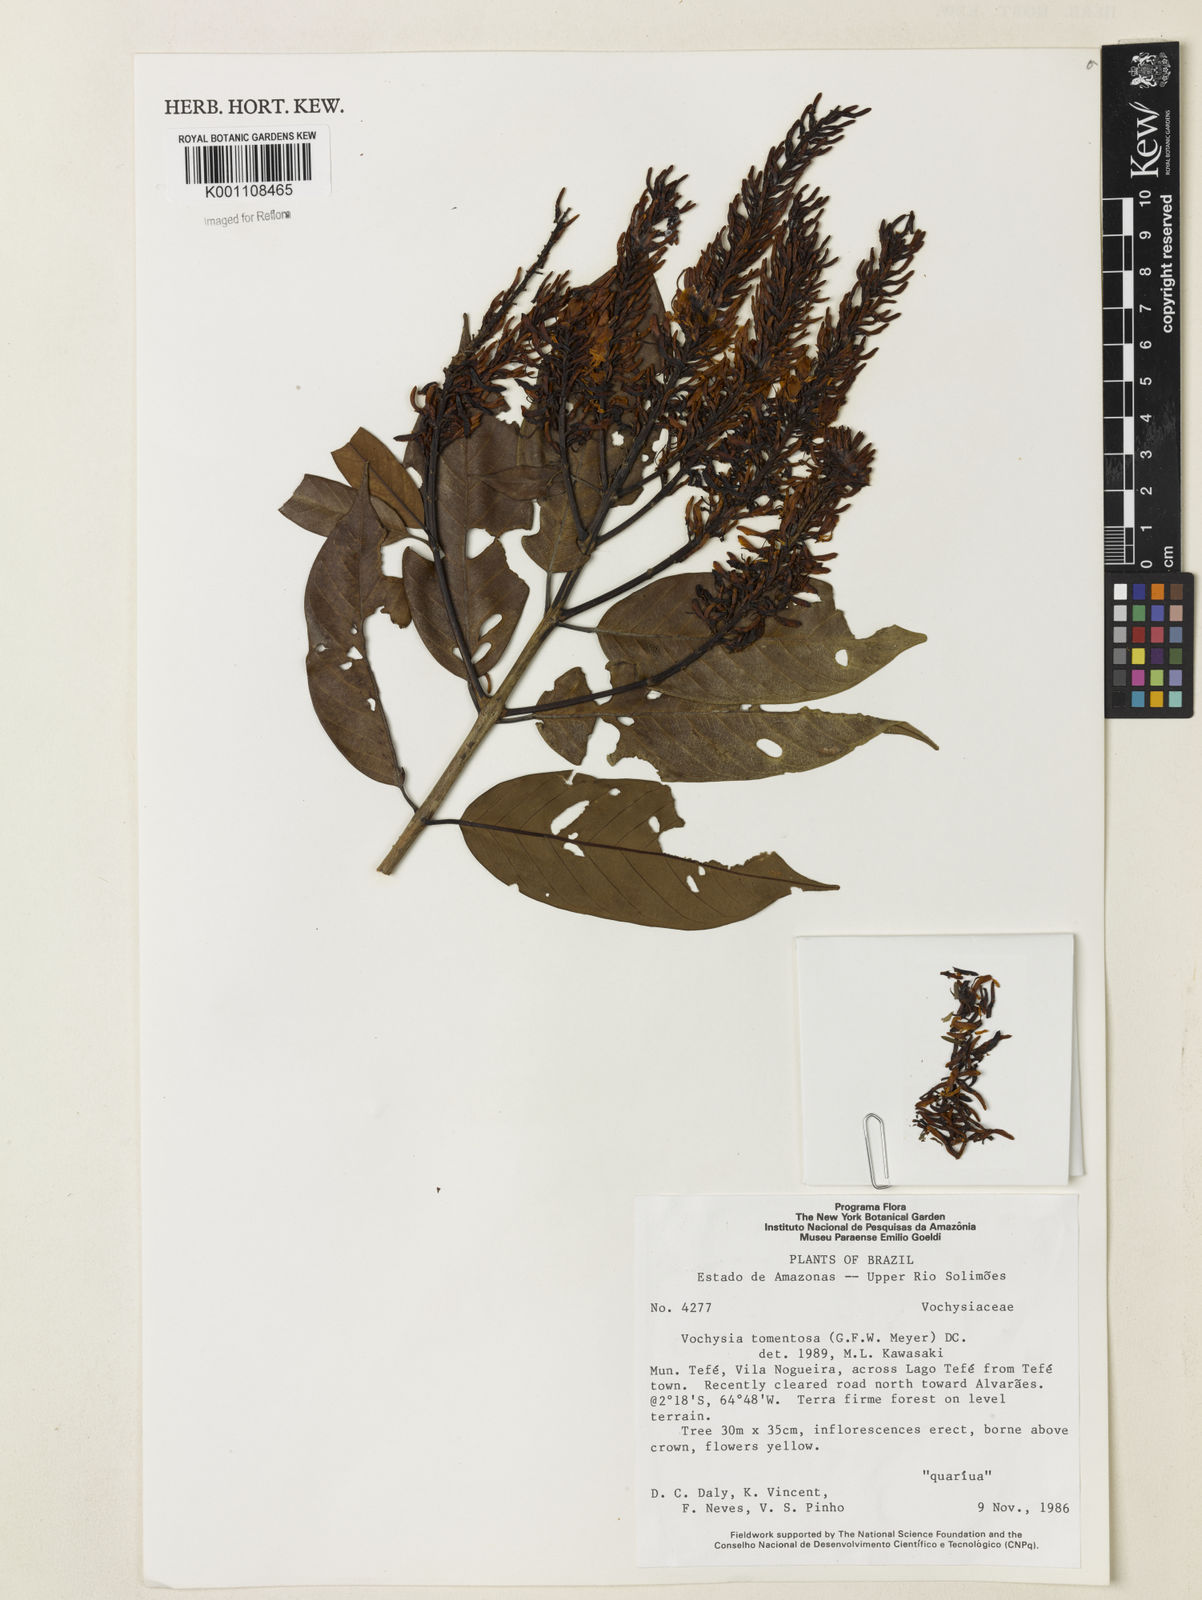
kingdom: Plantae
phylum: Tracheophyta
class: Magnoliopsida
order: Myrtales
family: Vochysiaceae
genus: Vochysia
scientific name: Vochysia tomentosa
